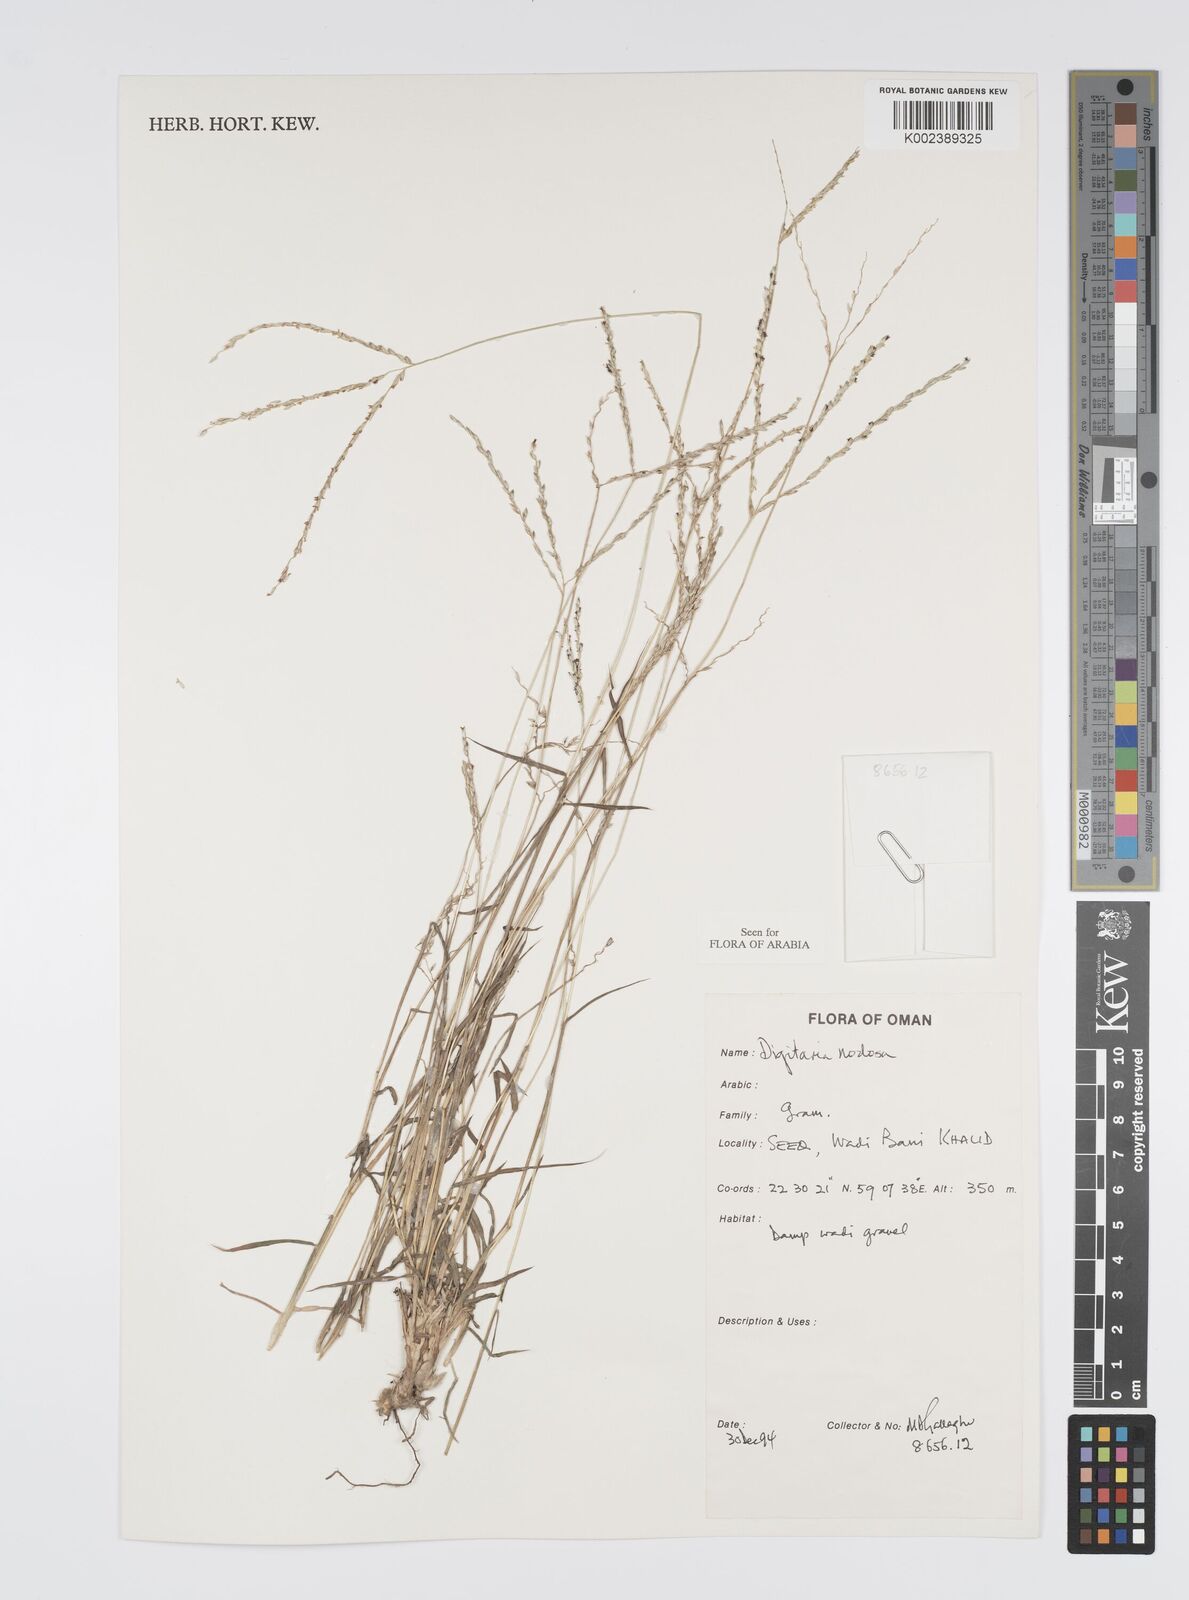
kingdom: Plantae
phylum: Tracheophyta
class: Liliopsida
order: Poales
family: Poaceae
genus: Digitaria
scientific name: Digitaria nodosa
